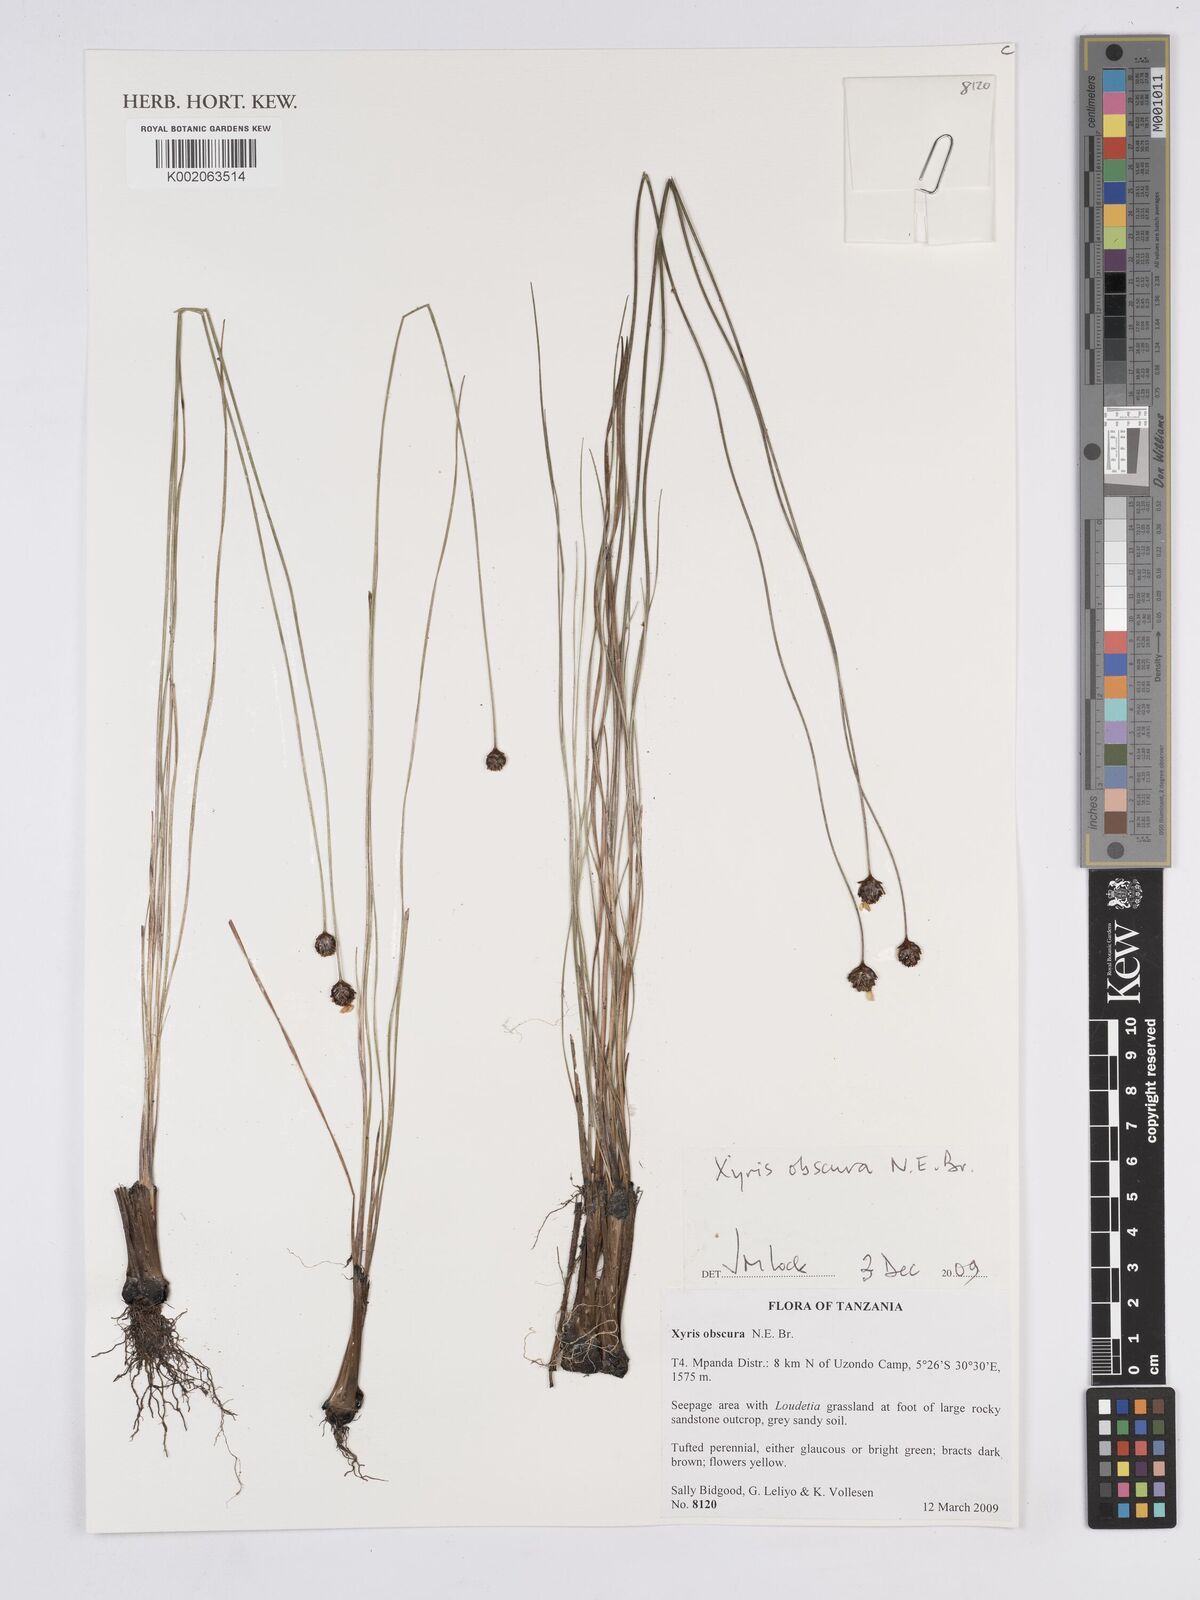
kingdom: Plantae
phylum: Tracheophyta
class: Liliopsida
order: Poales
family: Xyridaceae
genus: Xyris
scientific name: Xyris obscura
